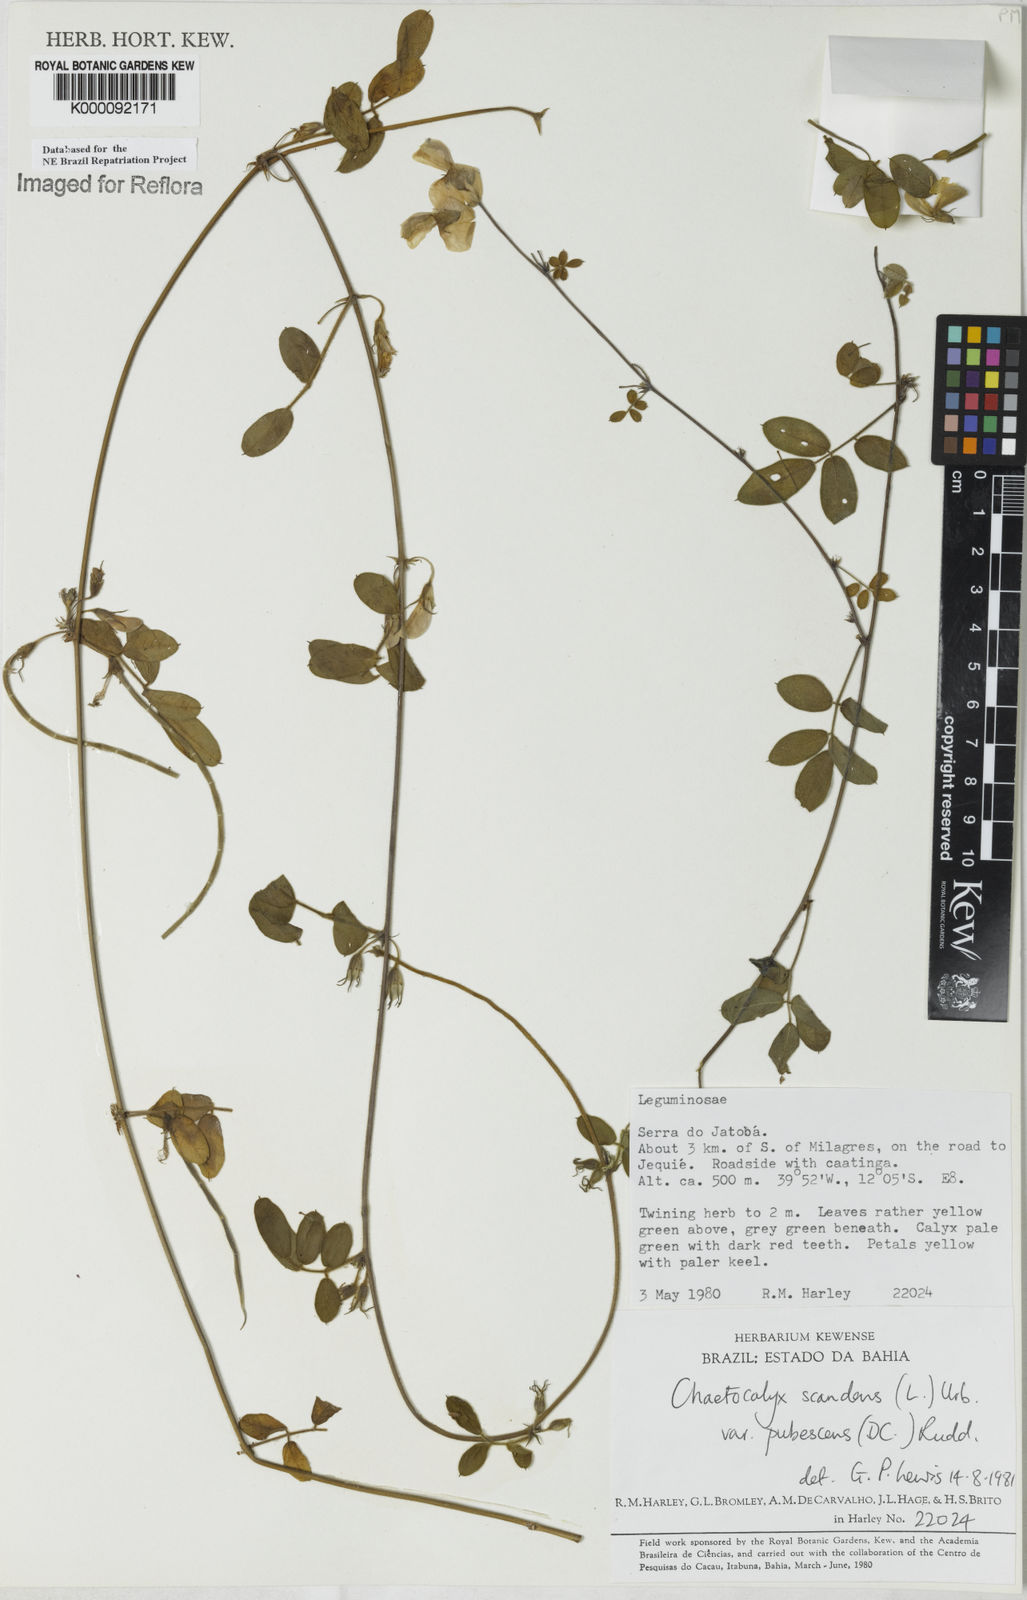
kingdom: Plantae
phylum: Tracheophyta
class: Magnoliopsida
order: Fabales
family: Fabaceae
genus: Nissolia
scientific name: Nissolia vincentina
